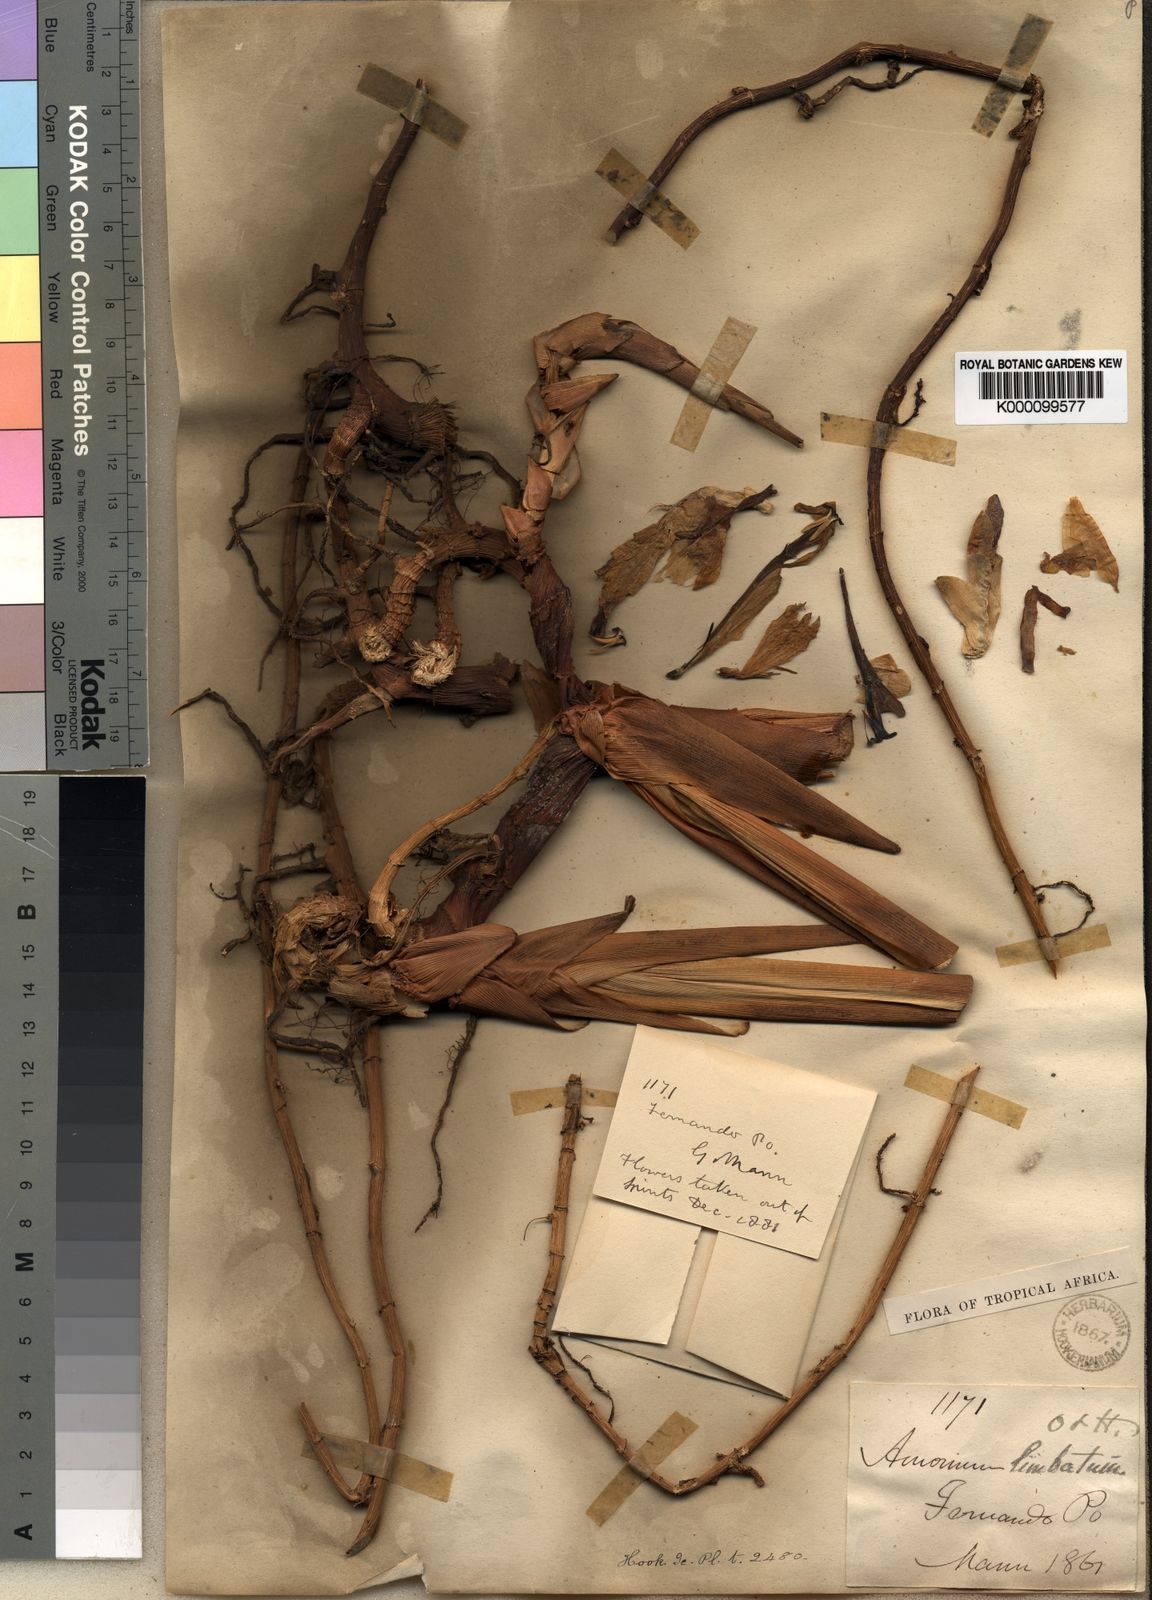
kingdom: Plantae
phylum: Tracheophyta
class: Liliopsida
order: Zingiberales
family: Zingiberaceae
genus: Aframomum
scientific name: Aframomum limbatum
